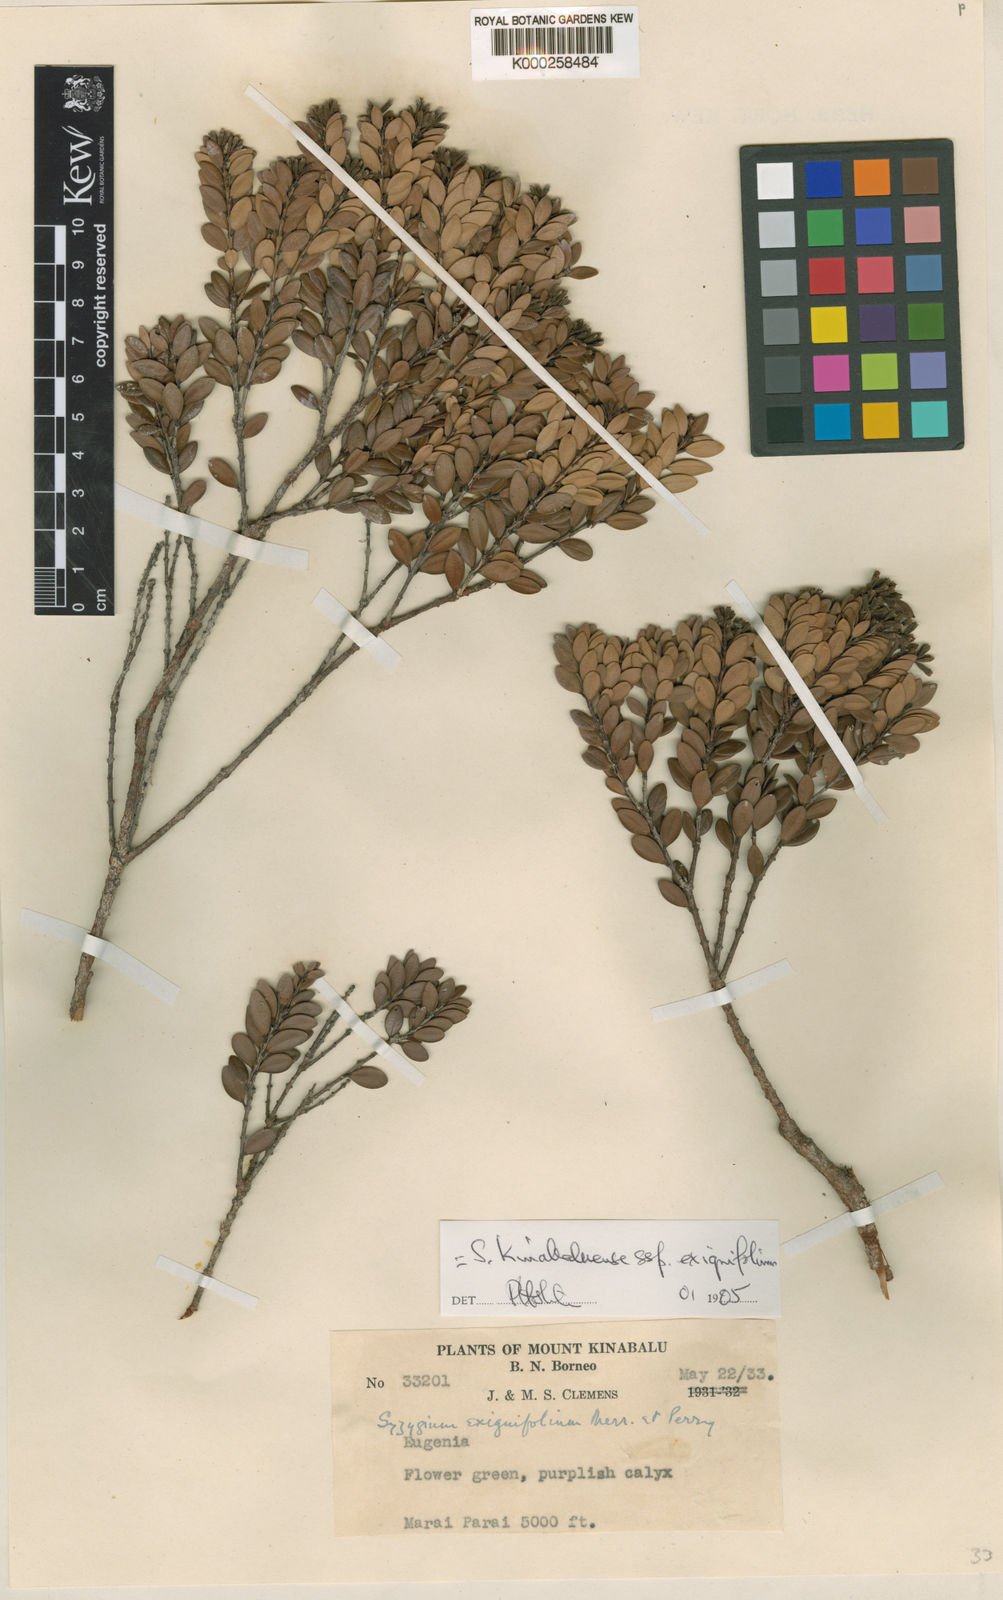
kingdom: Plantae
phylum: Tracheophyta
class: Magnoliopsida
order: Myrtales
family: Myrtaceae
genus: Syzygium
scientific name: Syzygium kinabaluense
